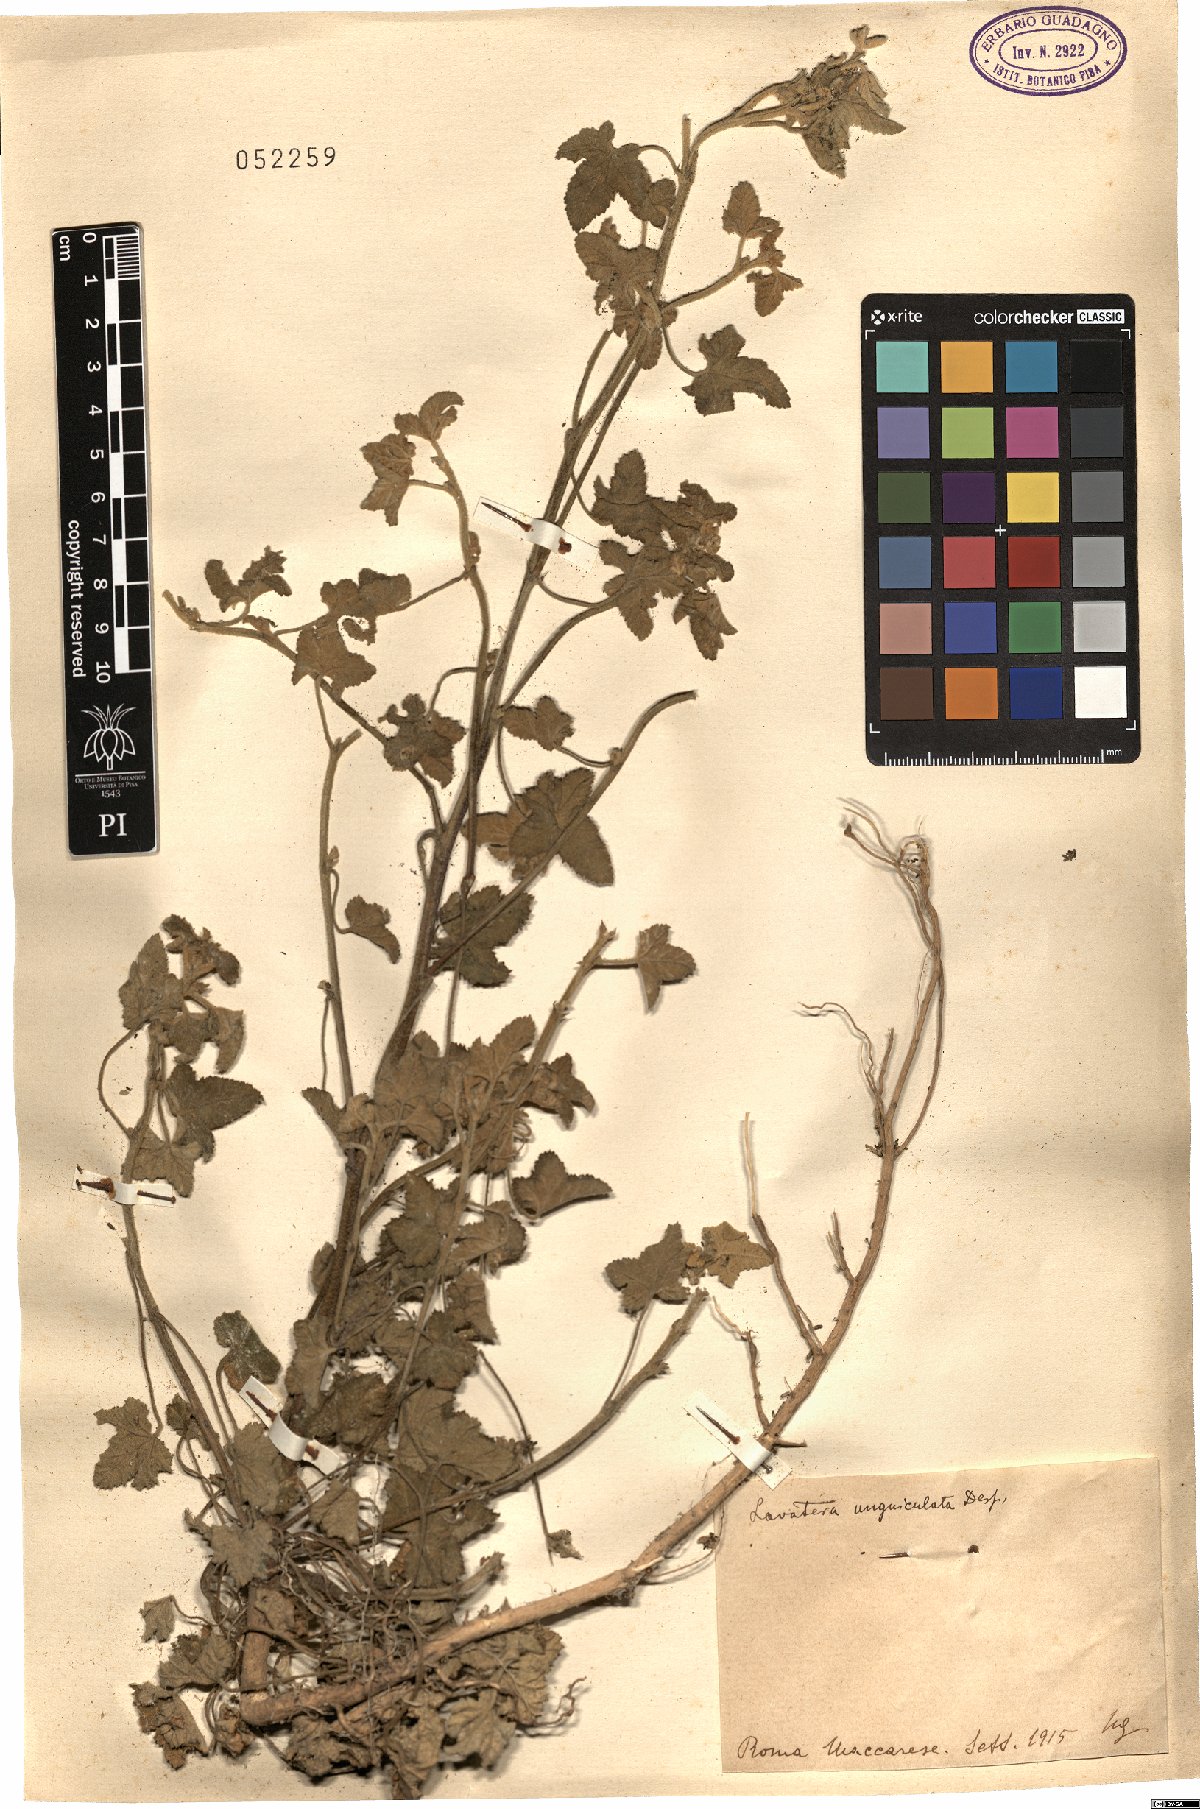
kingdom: Plantae
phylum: Tracheophyta
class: Magnoliopsida
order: Malvales
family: Malvaceae
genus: Malva
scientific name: Malva unguiculata
